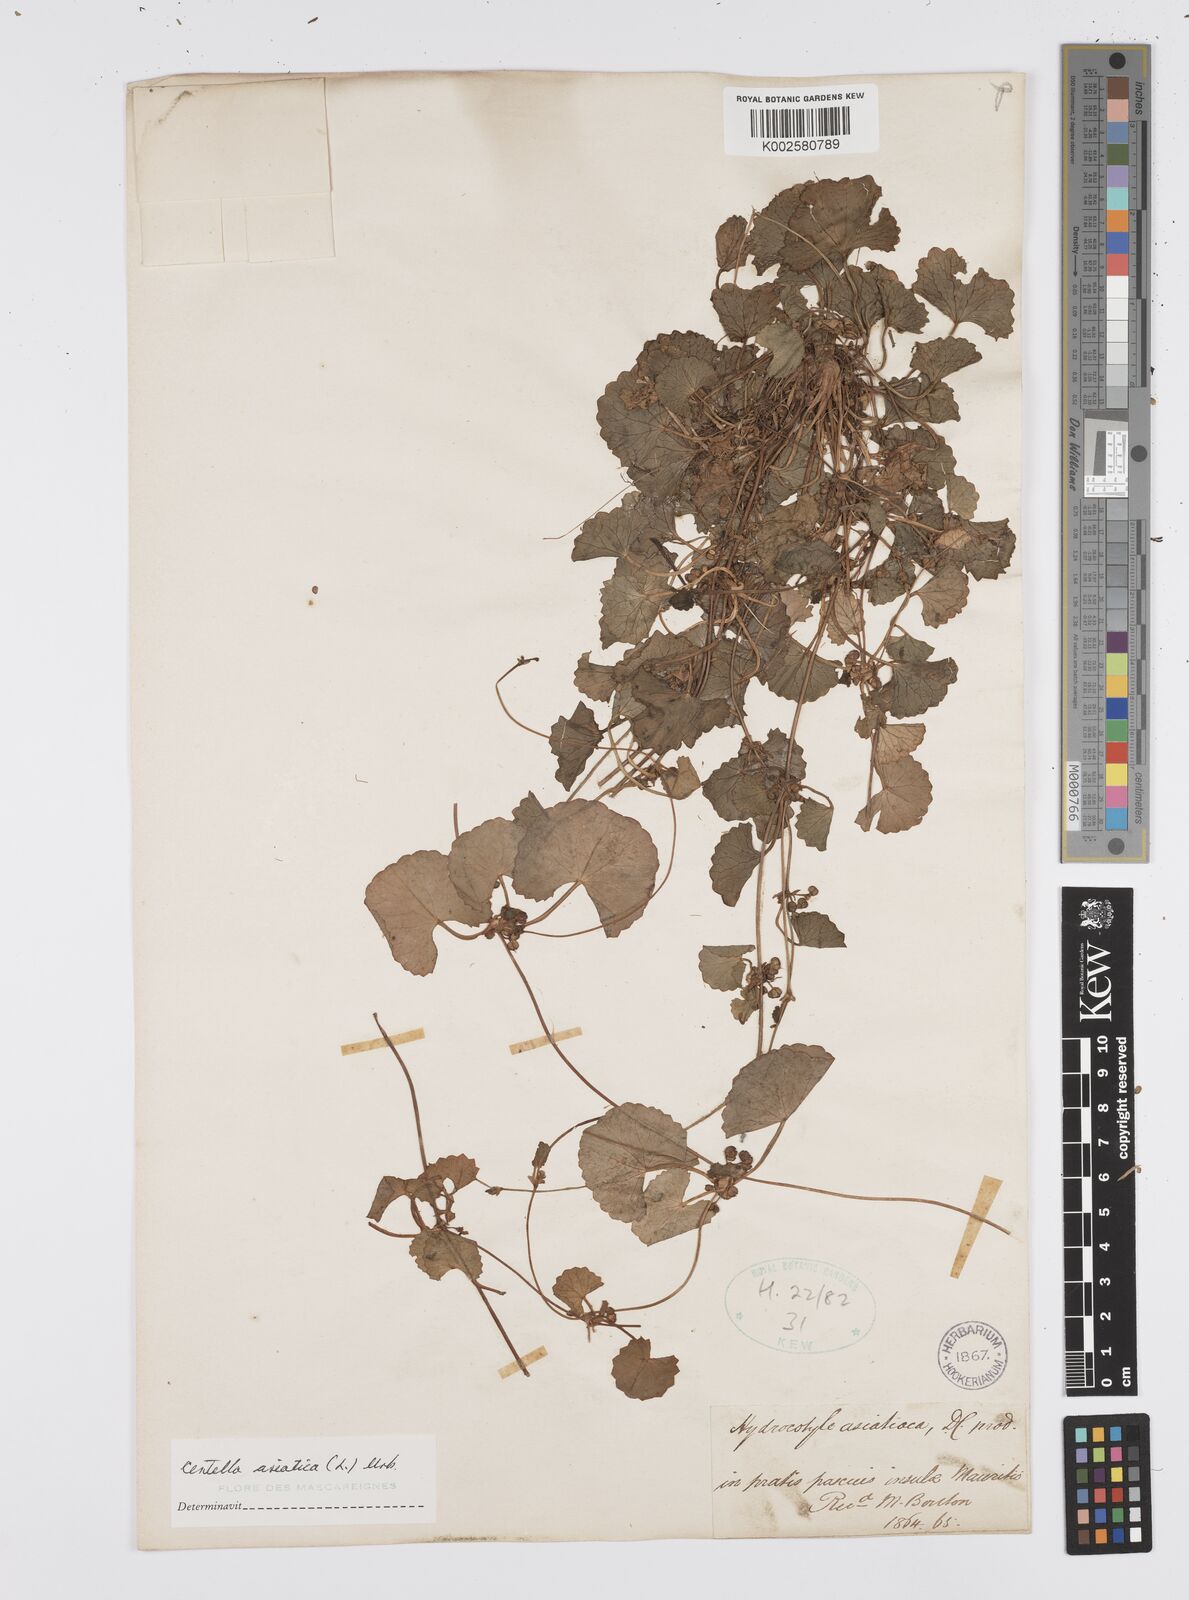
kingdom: Plantae
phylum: Tracheophyta
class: Magnoliopsida
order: Apiales
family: Apiaceae
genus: Centella
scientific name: Centella asiatica
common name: Spadeleaf
